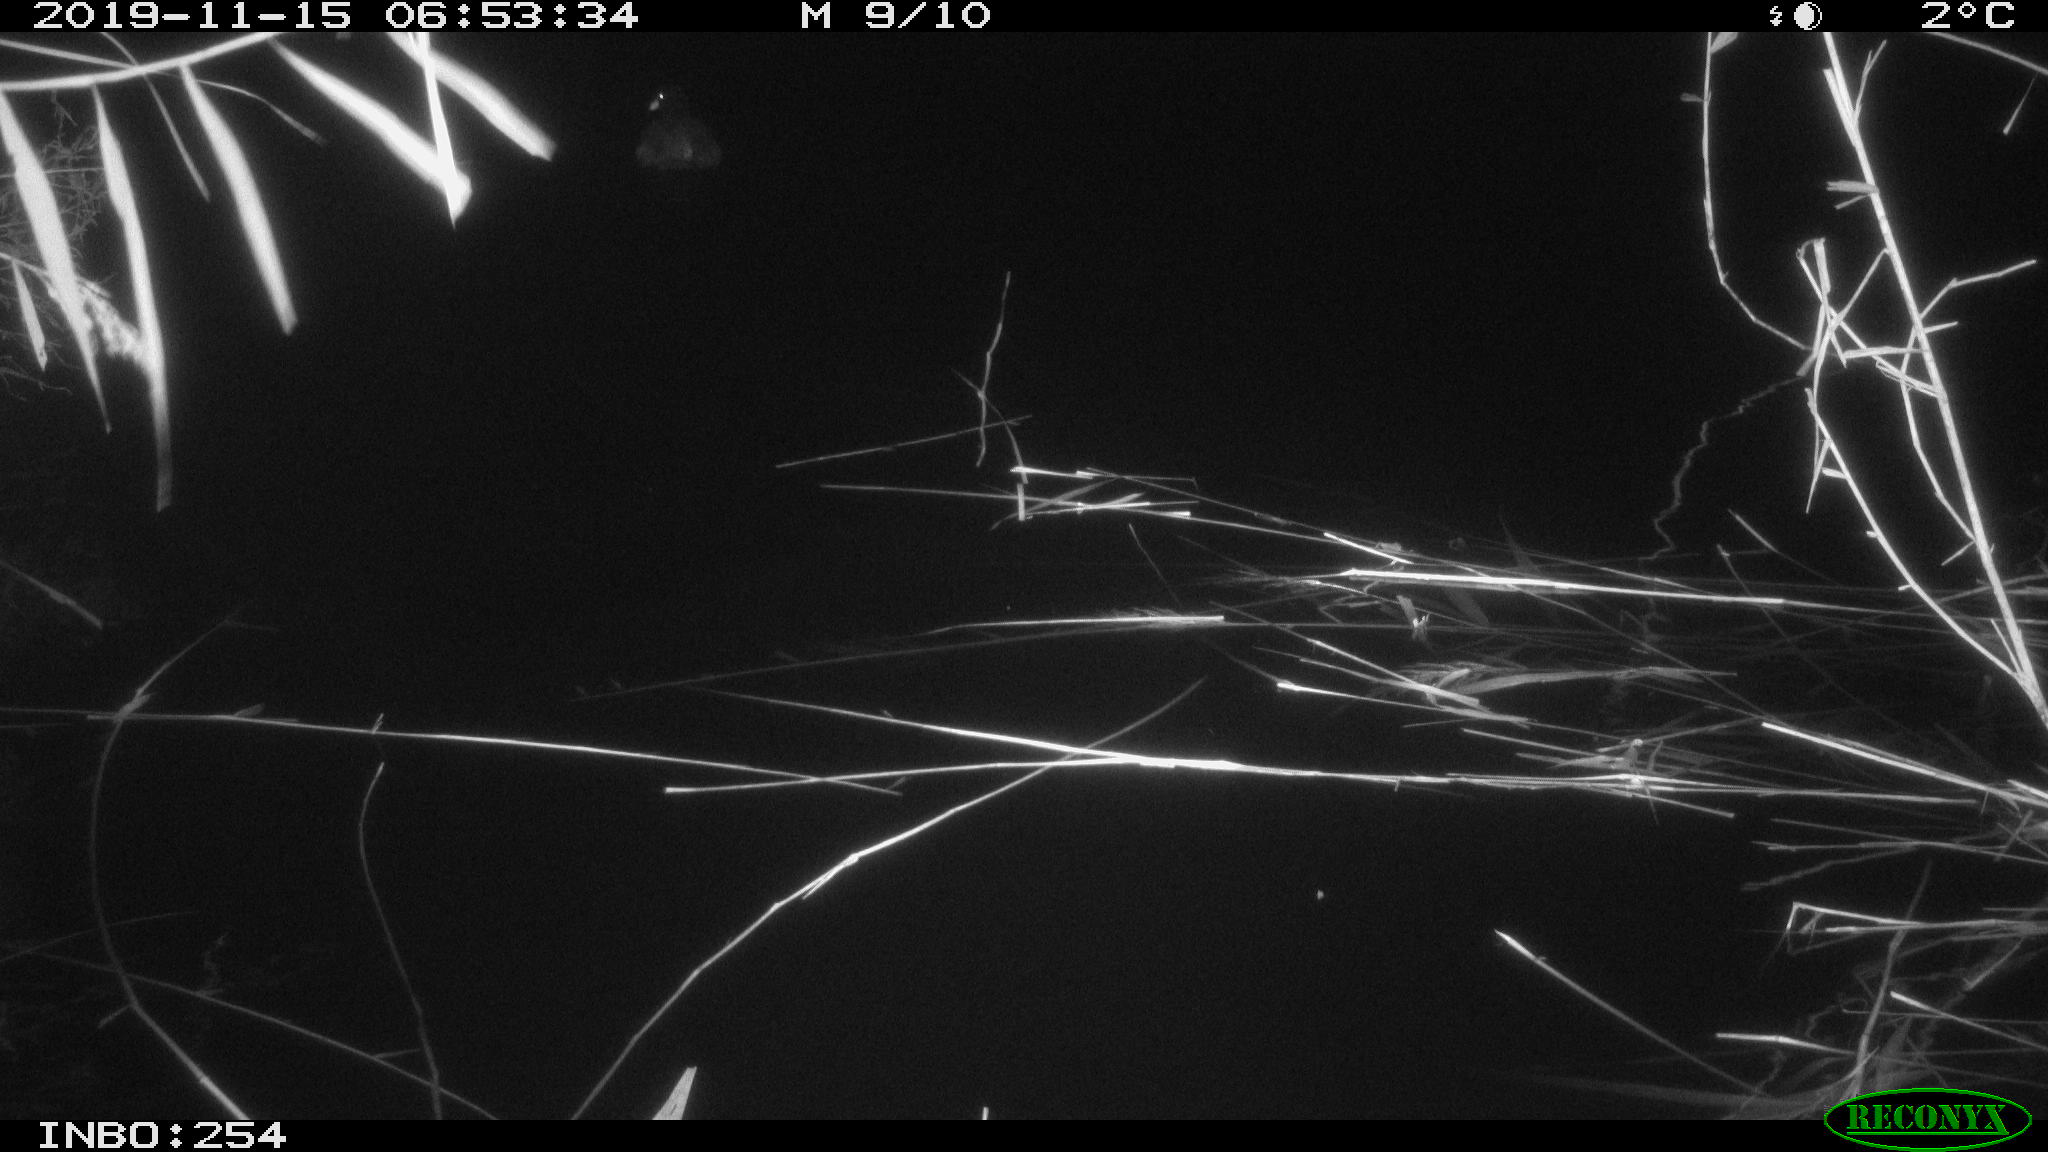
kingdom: Animalia
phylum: Chordata
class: Aves
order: Gruiformes
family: Rallidae
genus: Gallinula
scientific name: Gallinula chloropus
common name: Common moorhen
